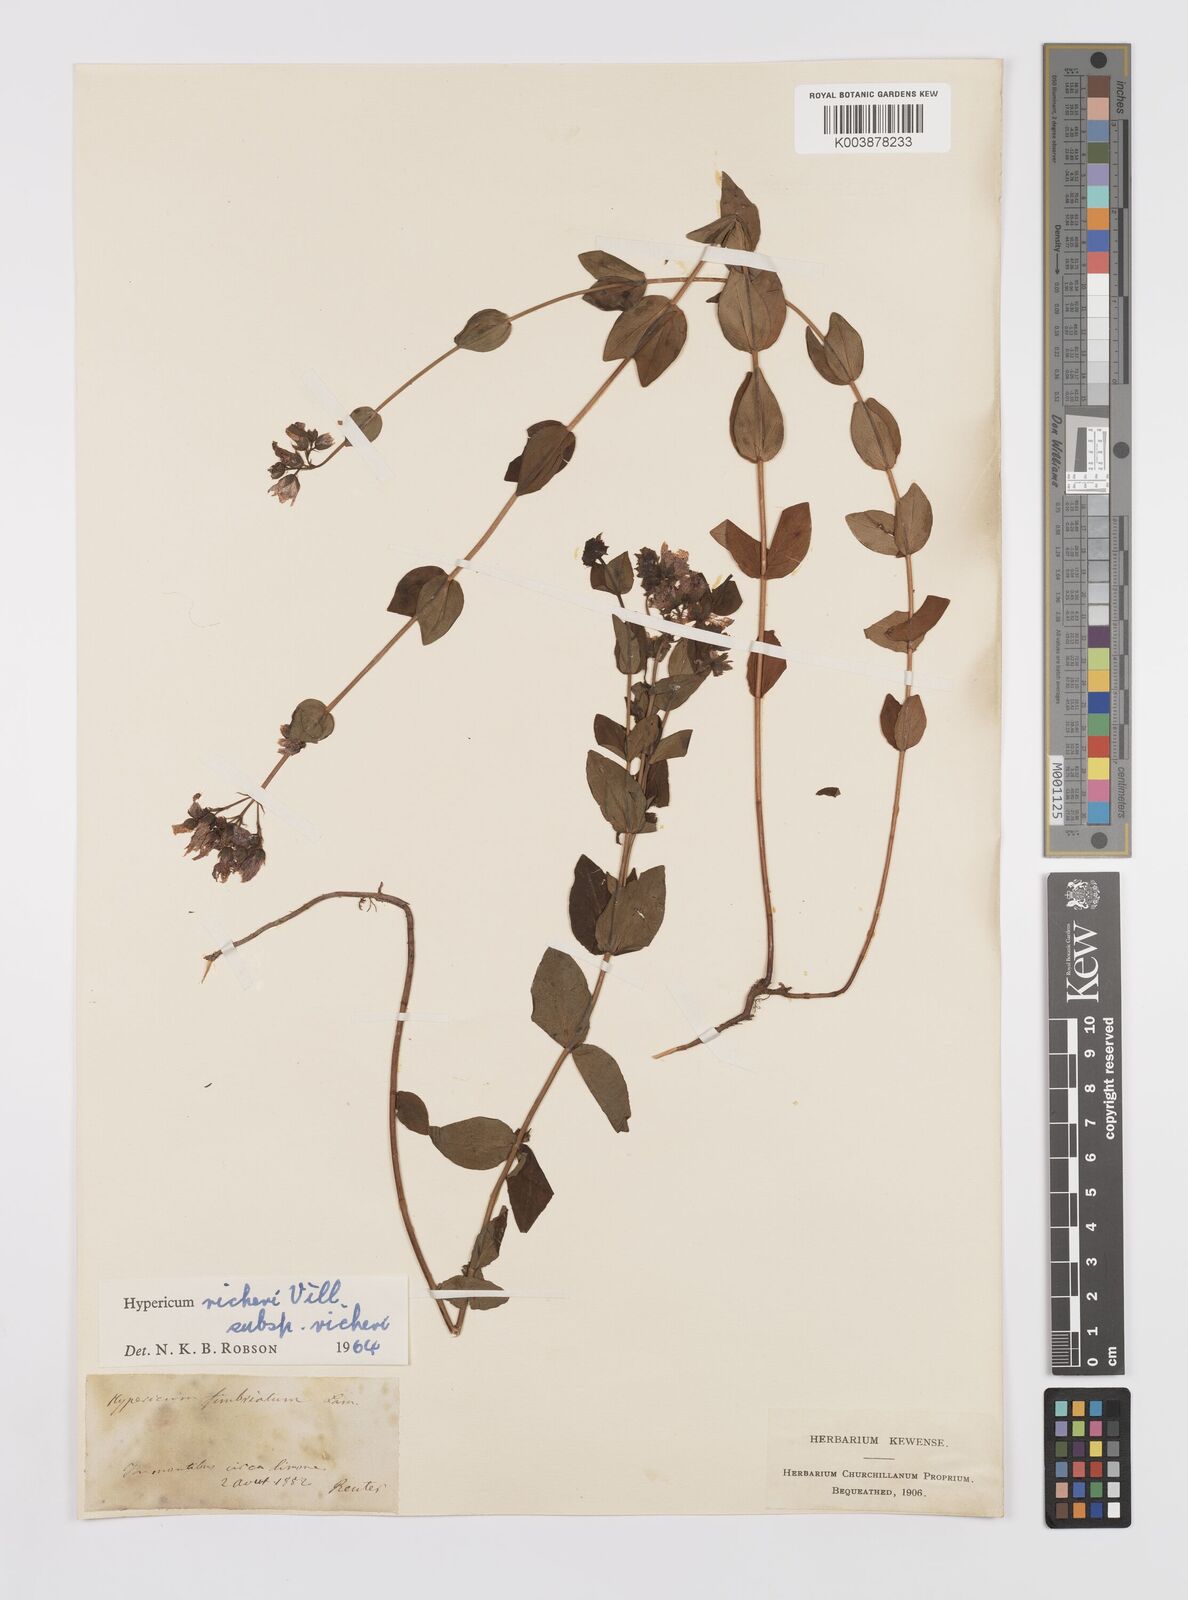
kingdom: Plantae
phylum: Tracheophyta
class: Magnoliopsida
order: Malpighiales
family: Hypericaceae
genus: Hypericum
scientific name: Hypericum richeri
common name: Alpine st john's-wort
